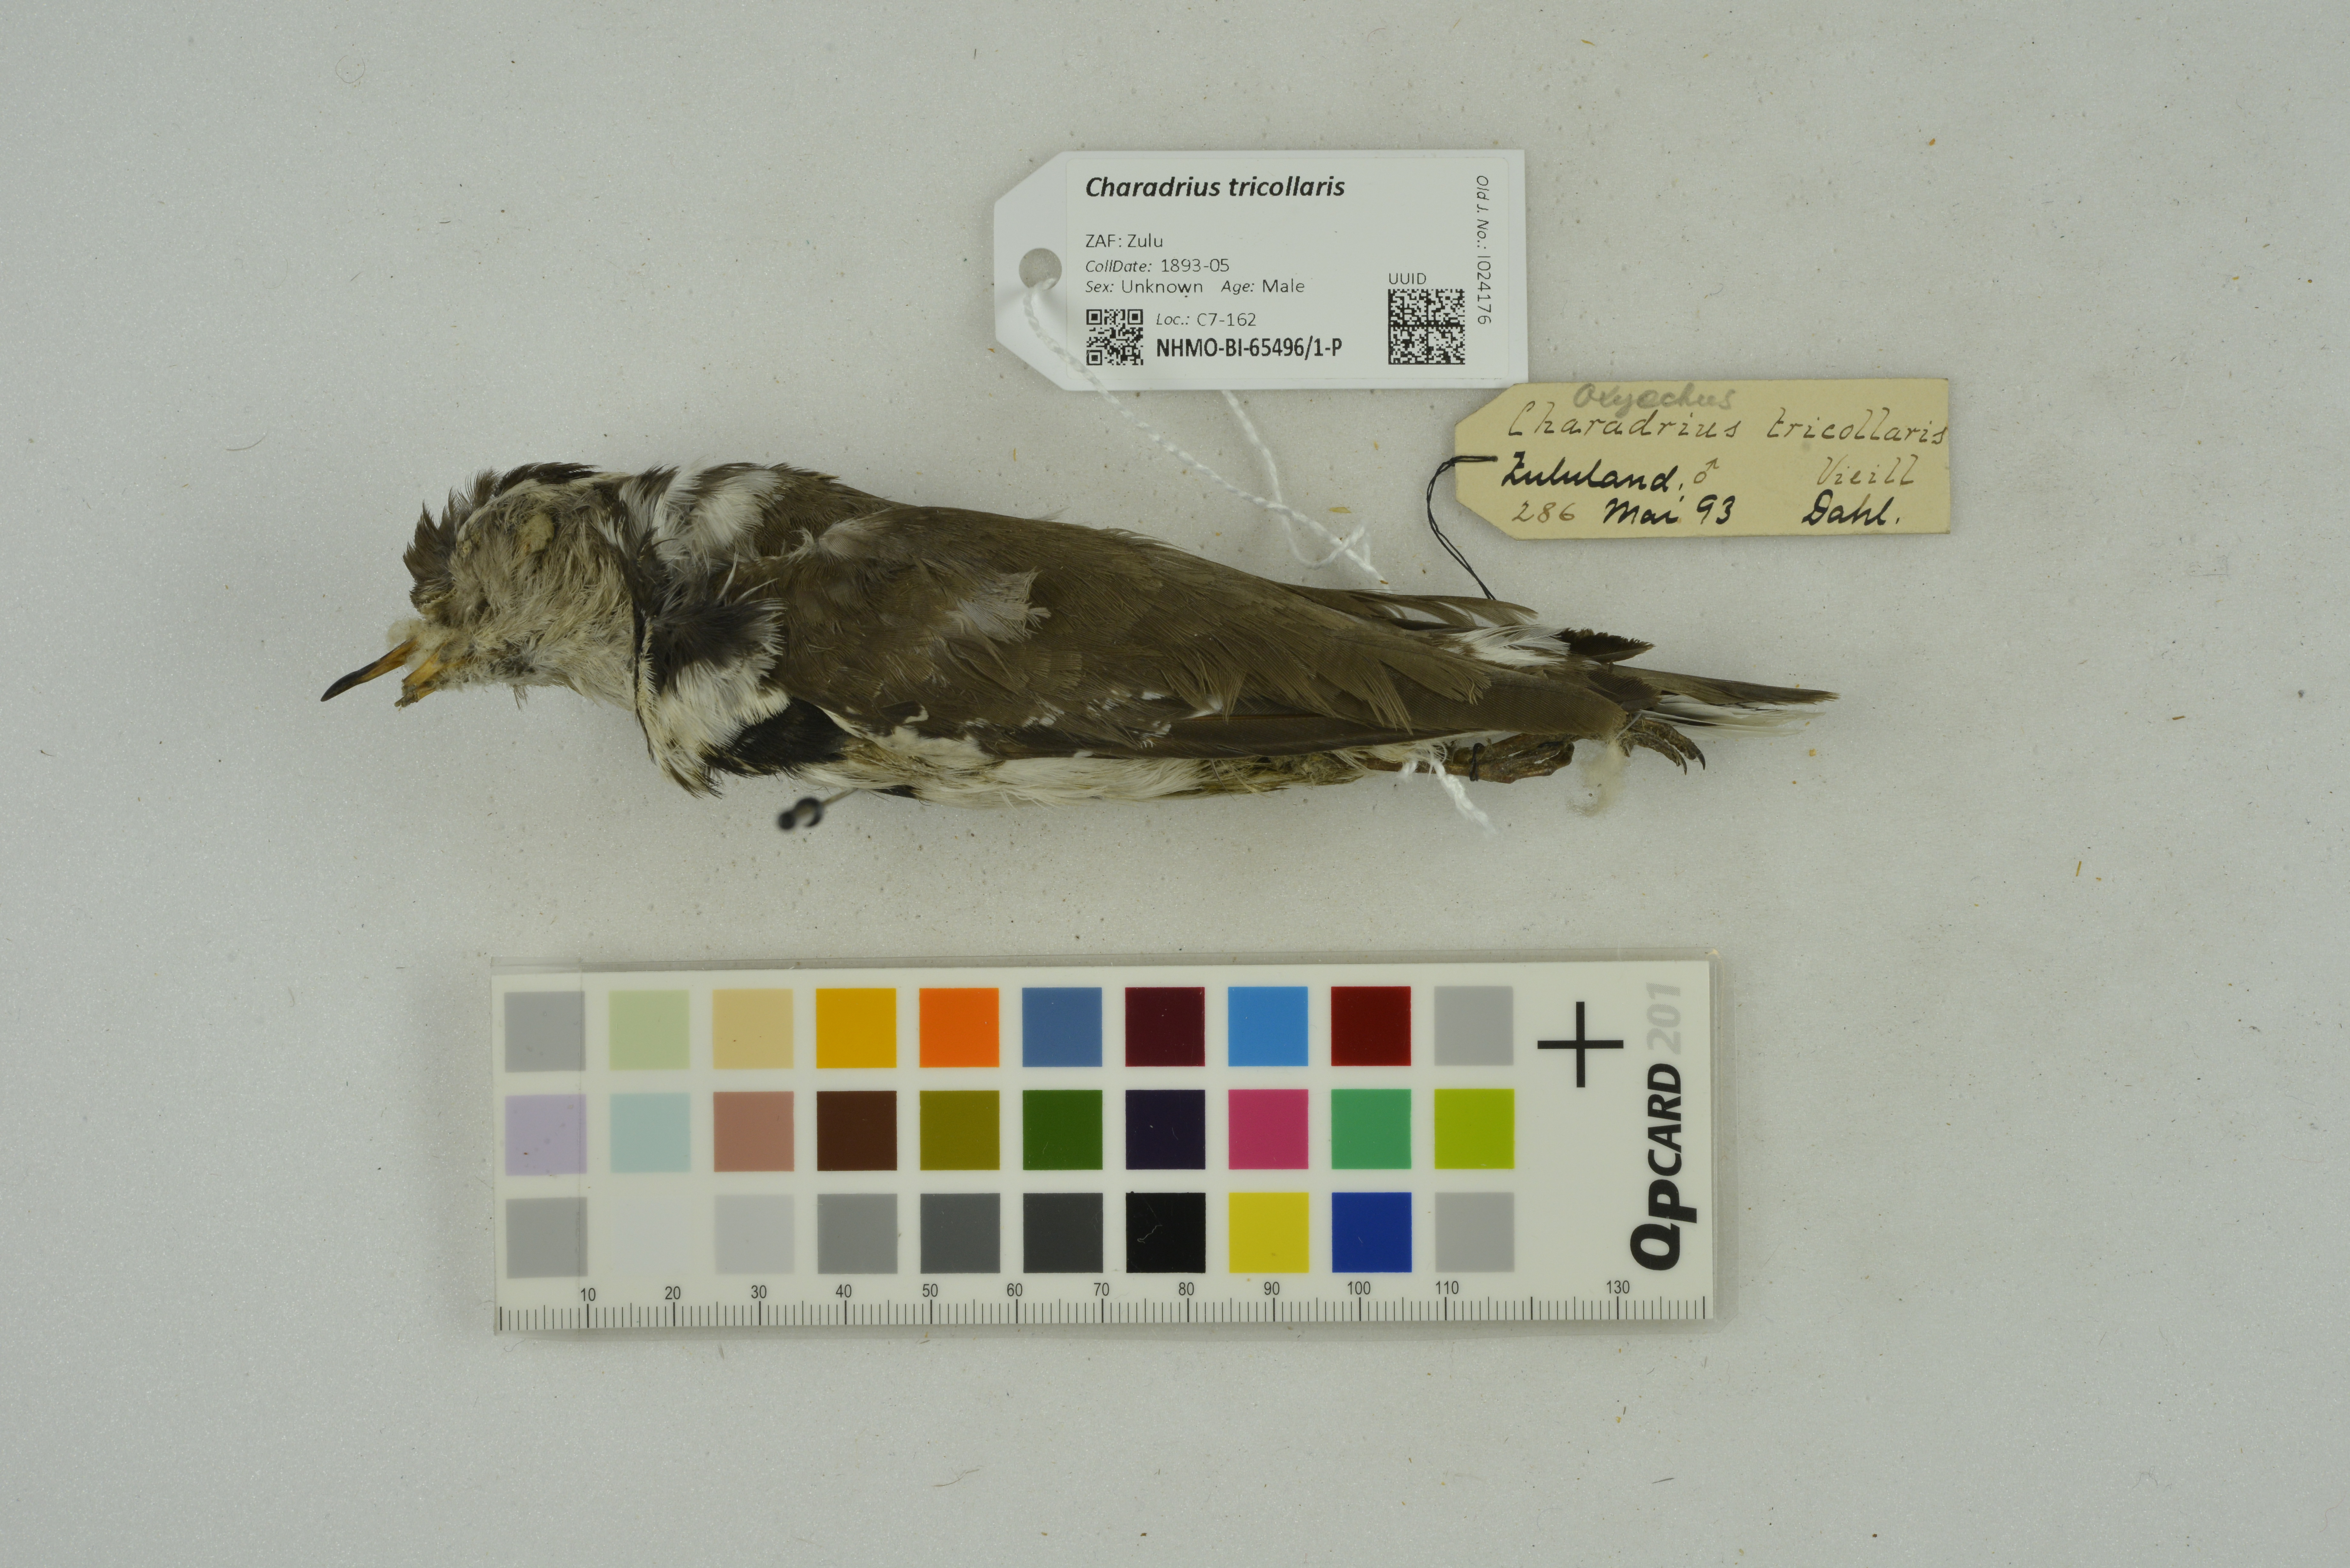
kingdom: Animalia
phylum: Chordata
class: Aves
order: Charadriiformes
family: Charadriidae
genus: Charadrius
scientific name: Charadrius tricollaris
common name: Three-banded plover
